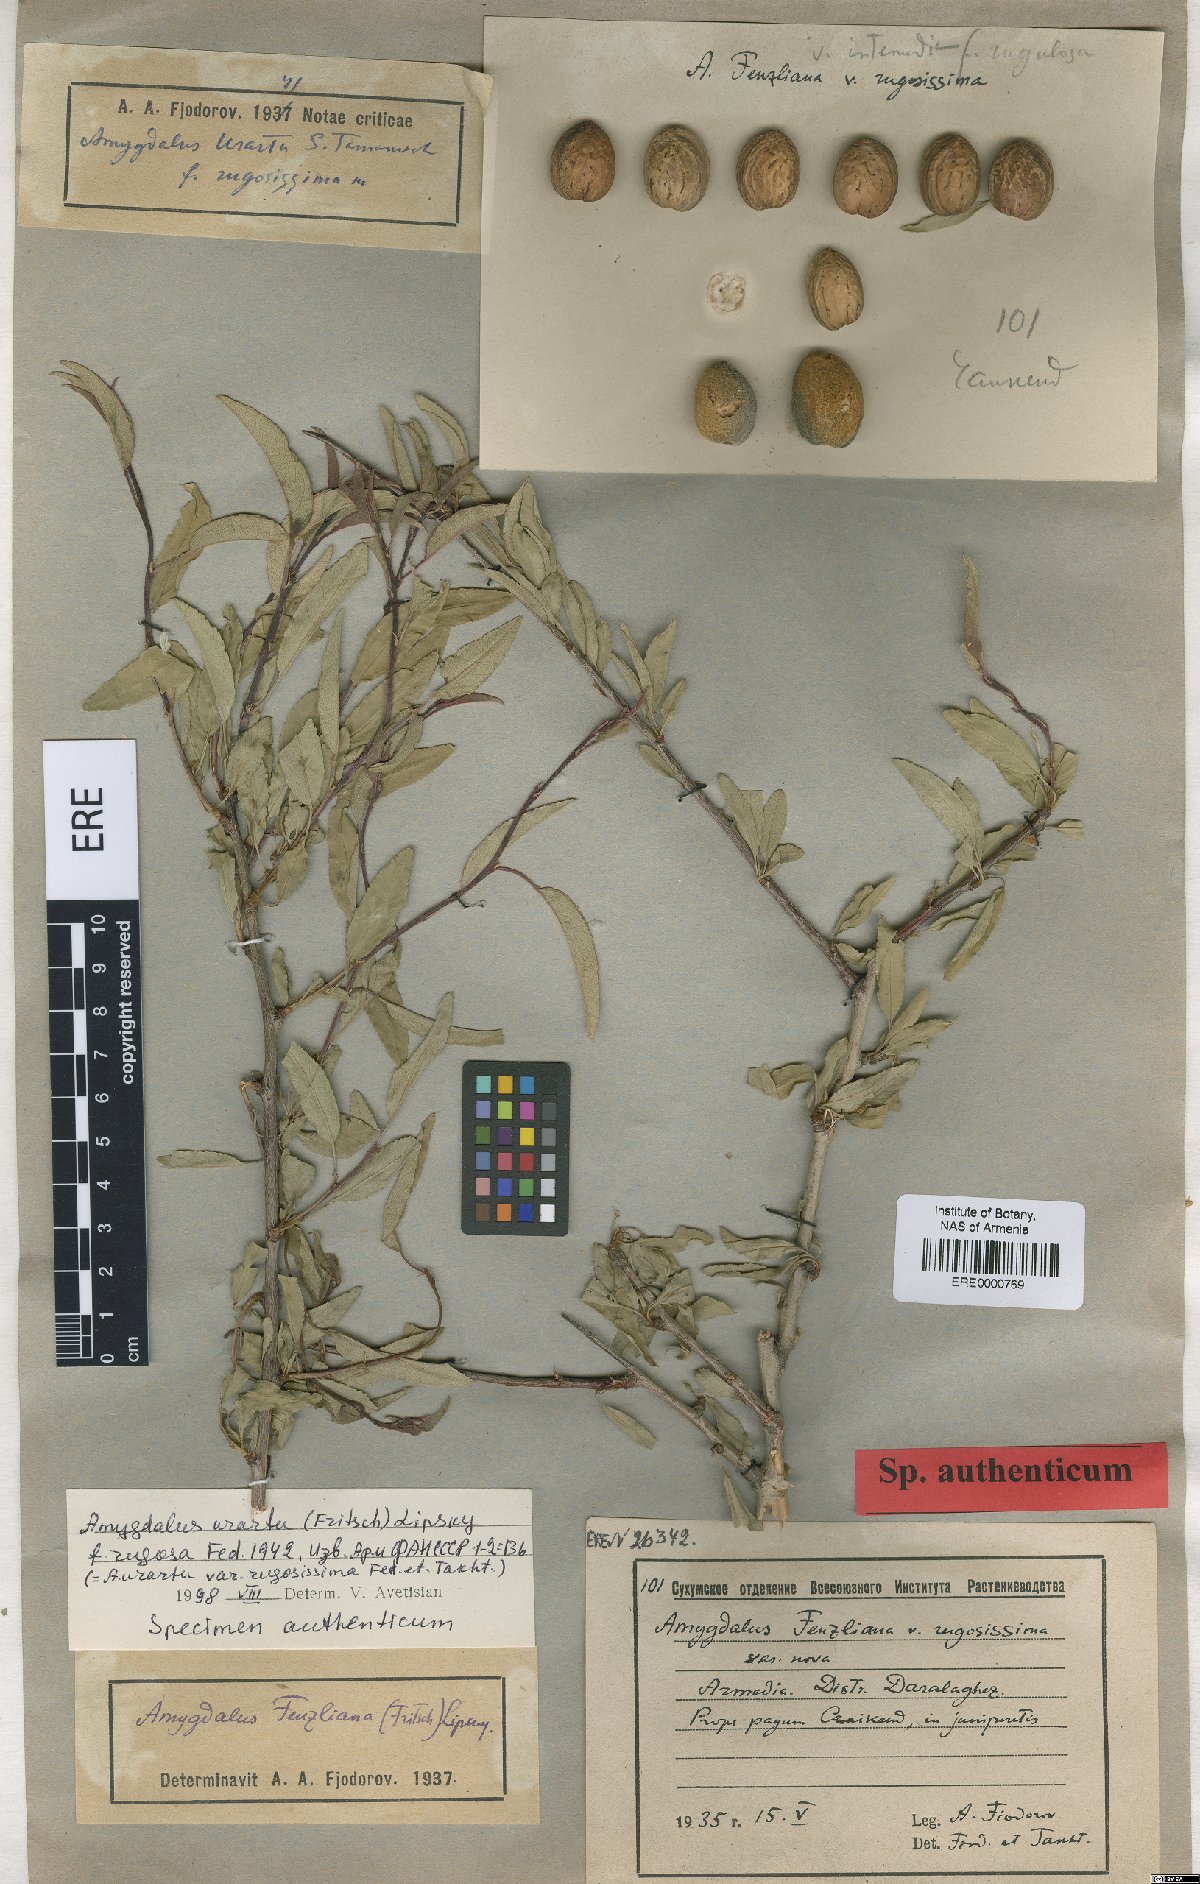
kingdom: Plantae
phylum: Tracheophyta
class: Magnoliopsida
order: Rosales
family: Rosaceae
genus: Prunus
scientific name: Prunus urartu
